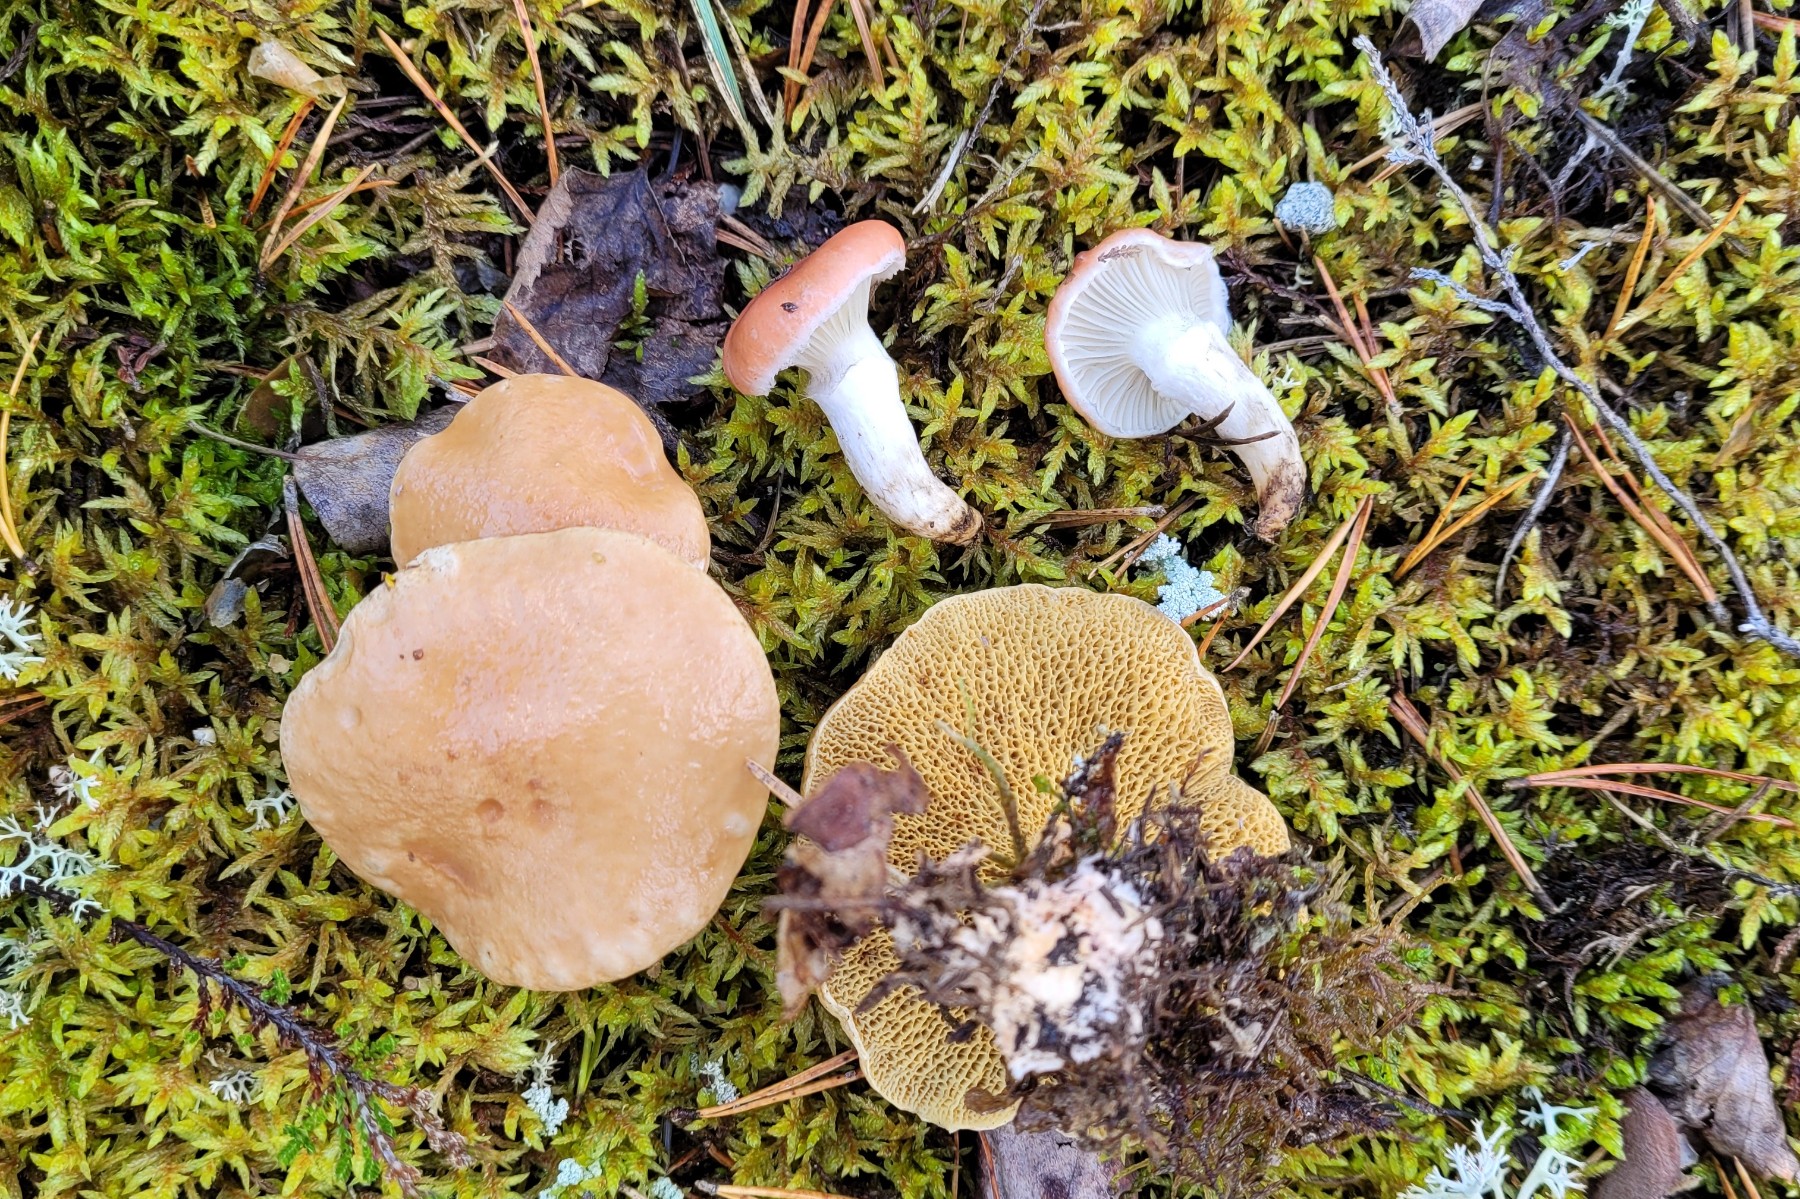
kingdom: Fungi
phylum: Basidiomycota
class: Agaricomycetes
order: Boletales
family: Gomphidiaceae
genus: Gomphidius
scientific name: Gomphidius roseus
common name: rosenrød slimslør
